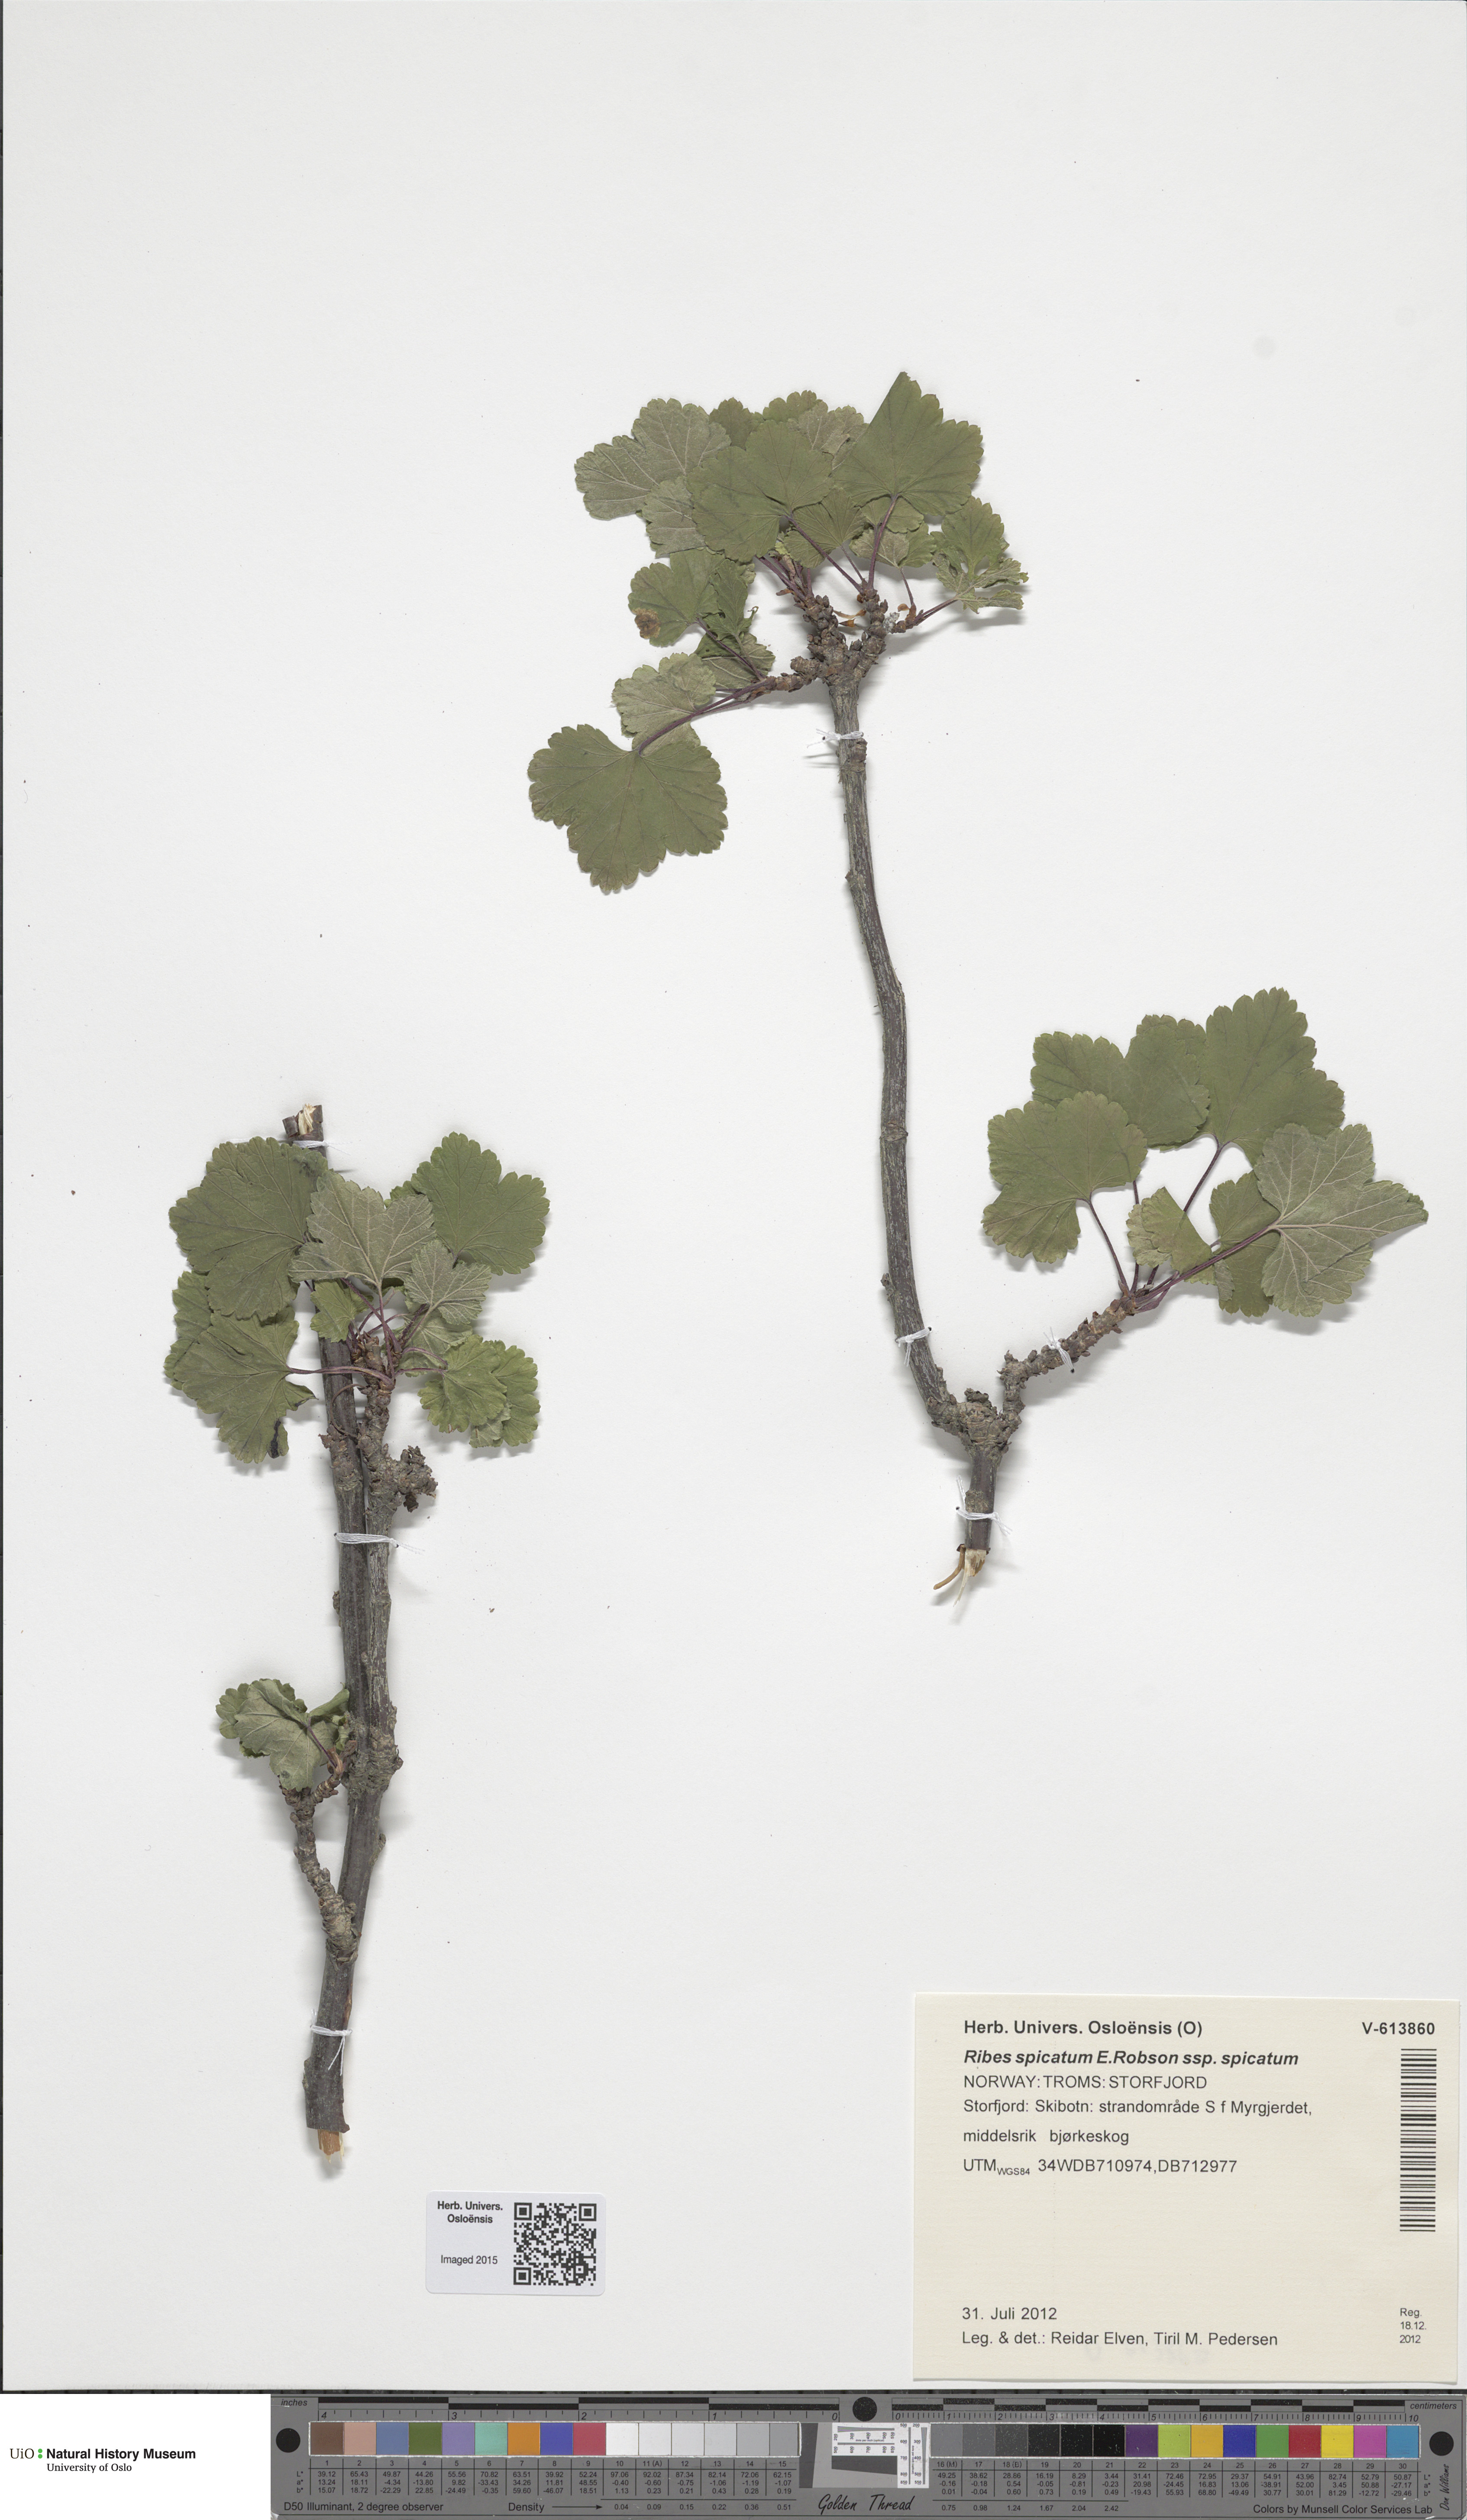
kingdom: Plantae
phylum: Tracheophyta
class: Magnoliopsida
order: Saxifragales
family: Grossulariaceae
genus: Ribes
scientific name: Ribes spicatum
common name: Downy currant
